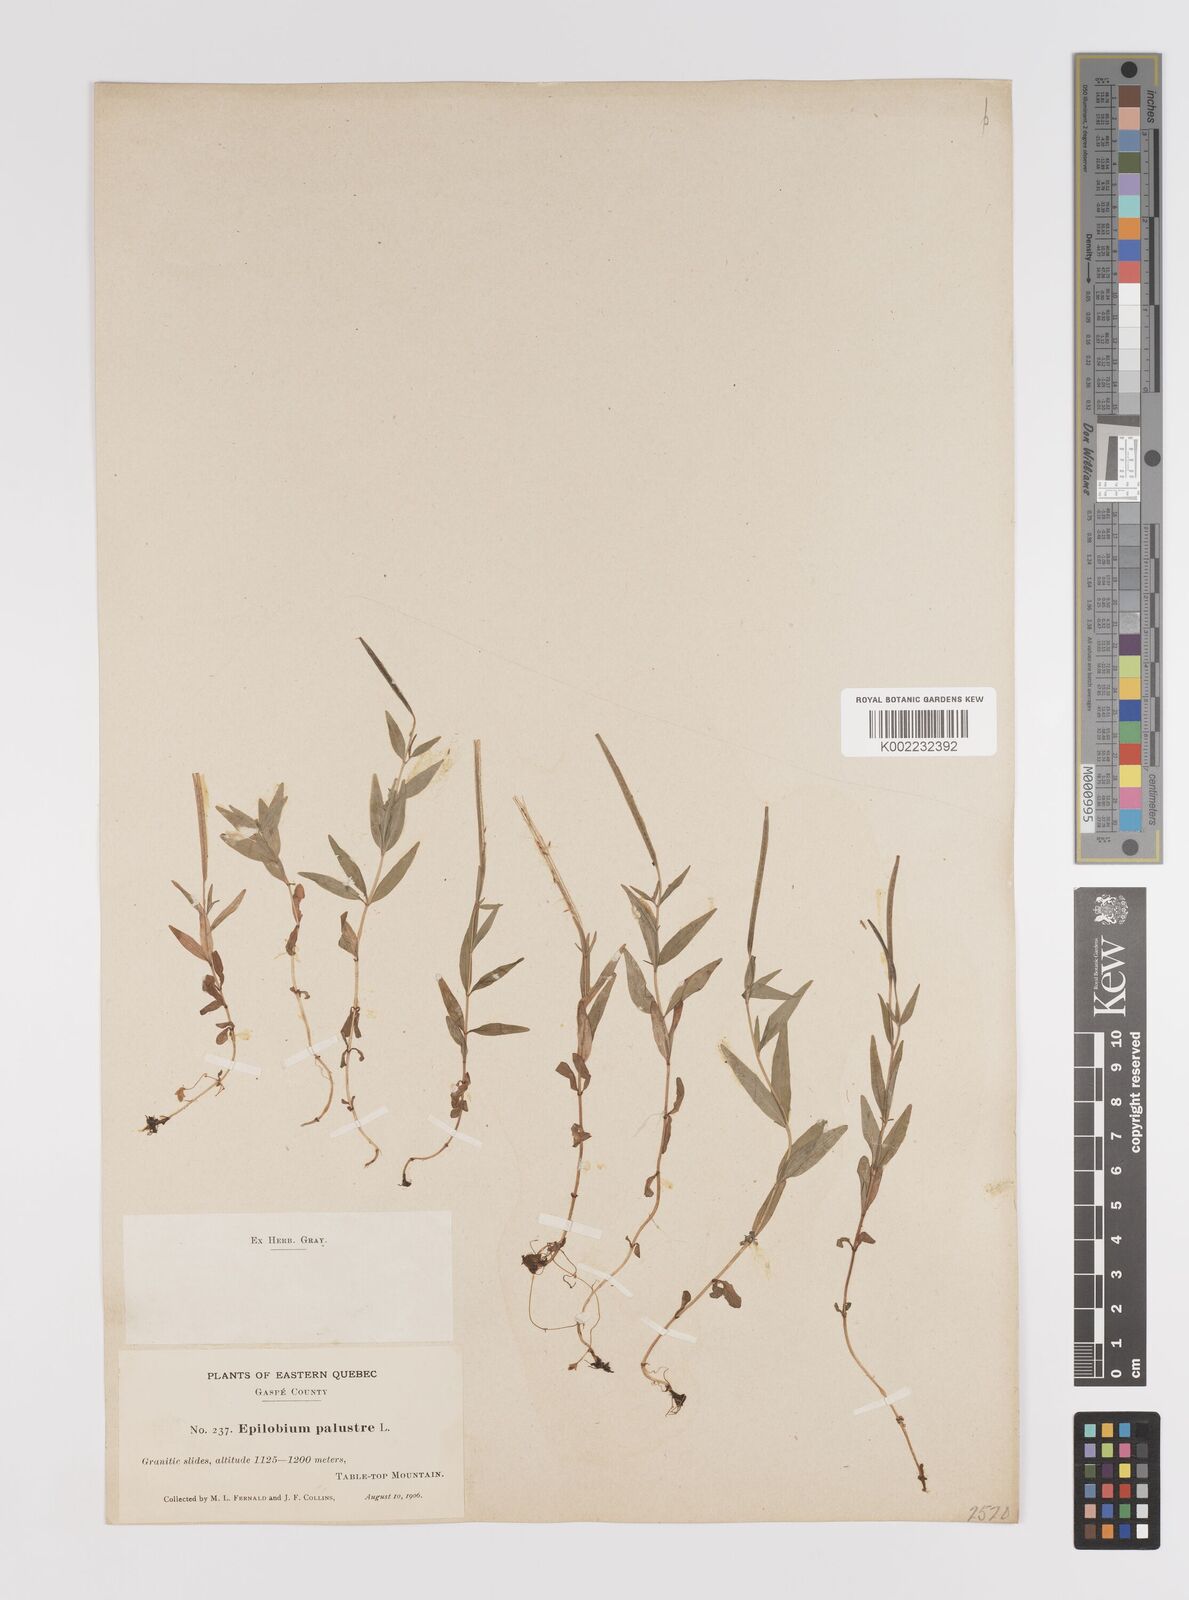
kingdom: Plantae
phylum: Tracheophyta
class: Magnoliopsida
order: Myrtales
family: Onagraceae
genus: Epilobium
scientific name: Epilobium palustre
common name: Marsh willowherb
